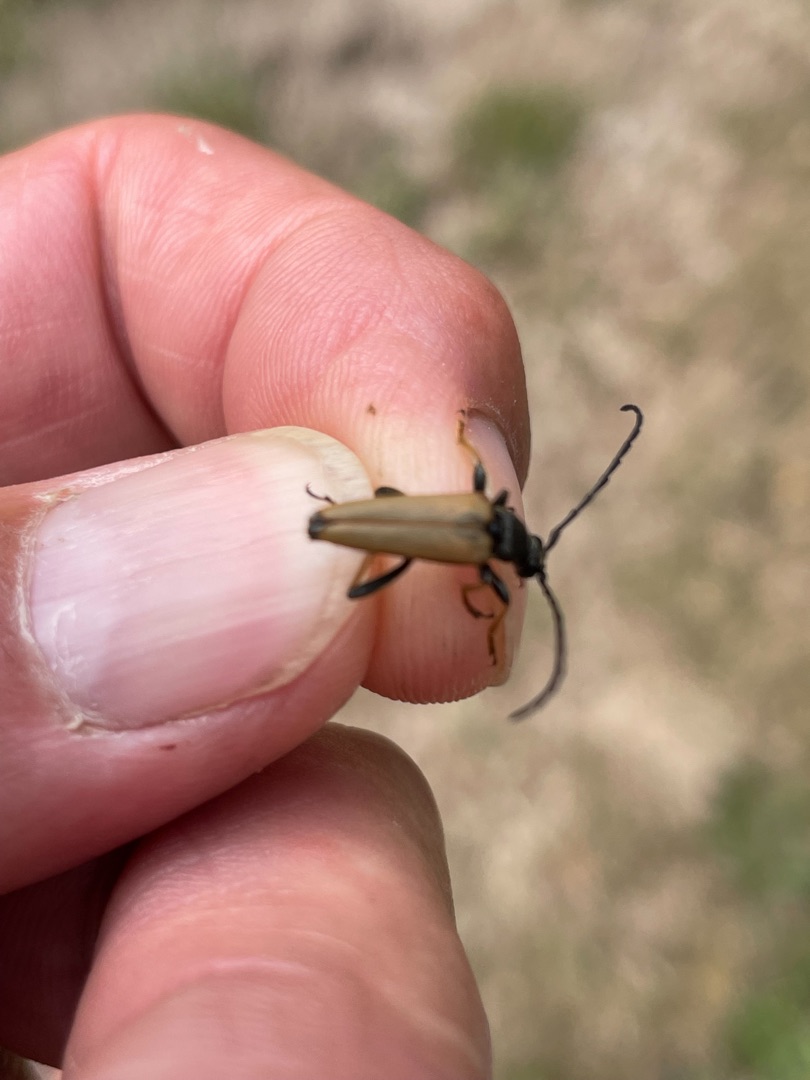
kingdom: Animalia
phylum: Arthropoda
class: Insecta
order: Coleoptera
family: Cerambycidae
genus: Stictoleptura
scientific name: Stictoleptura rubra
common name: Rød blomsterbuk
